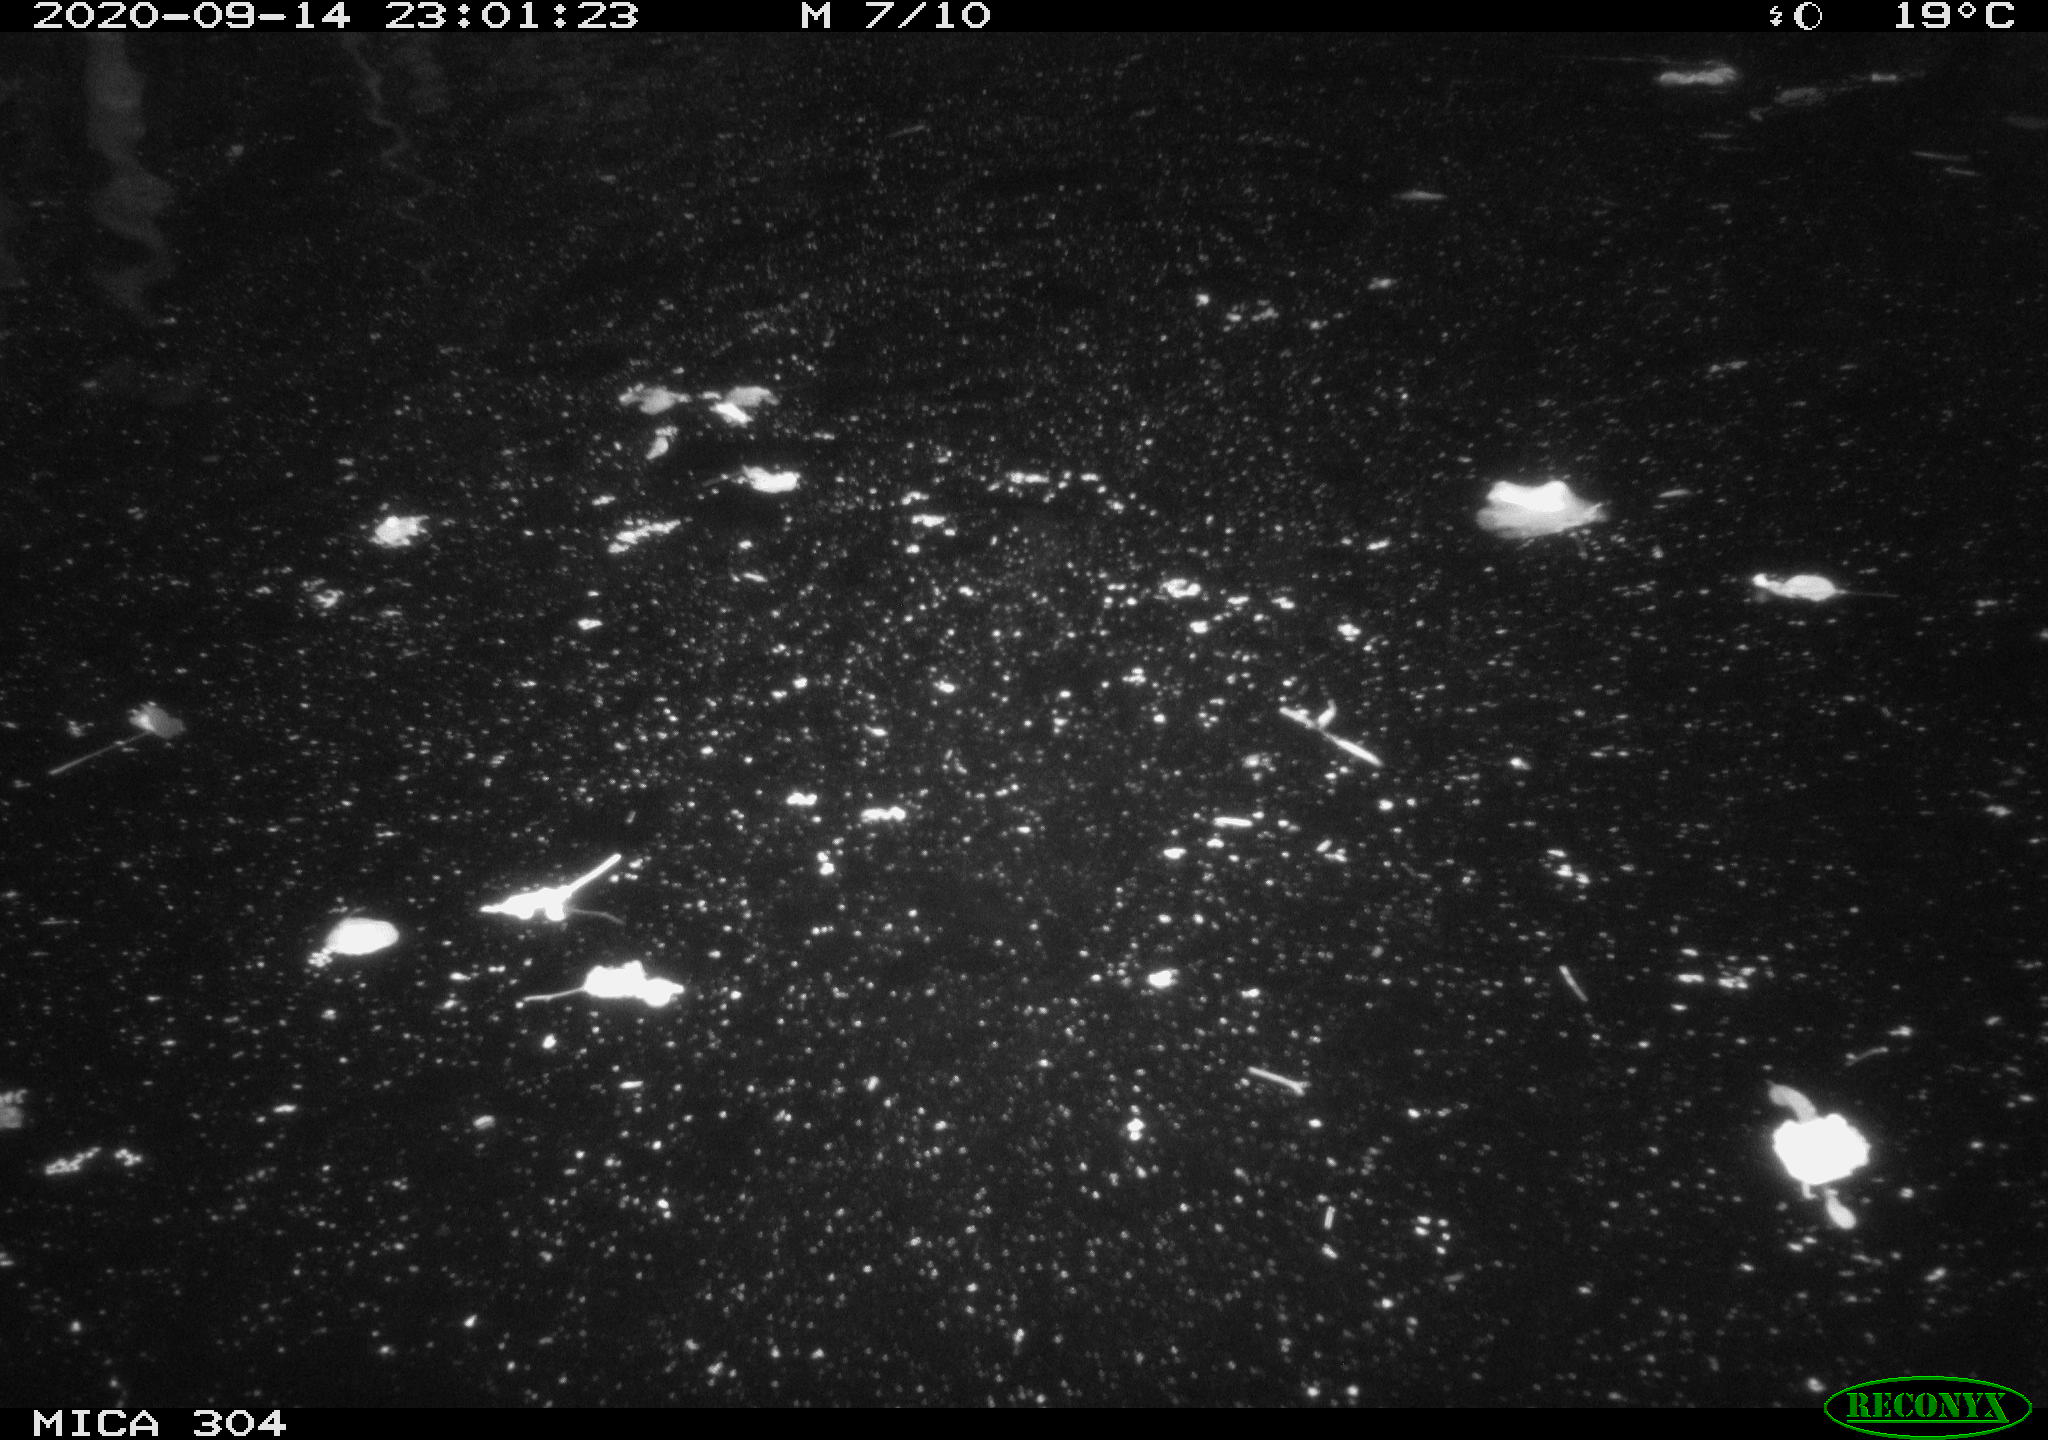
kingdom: Animalia
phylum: Chordata
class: Mammalia
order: Rodentia
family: Cricetidae
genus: Ondatra
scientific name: Ondatra zibethicus
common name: Muskrat
